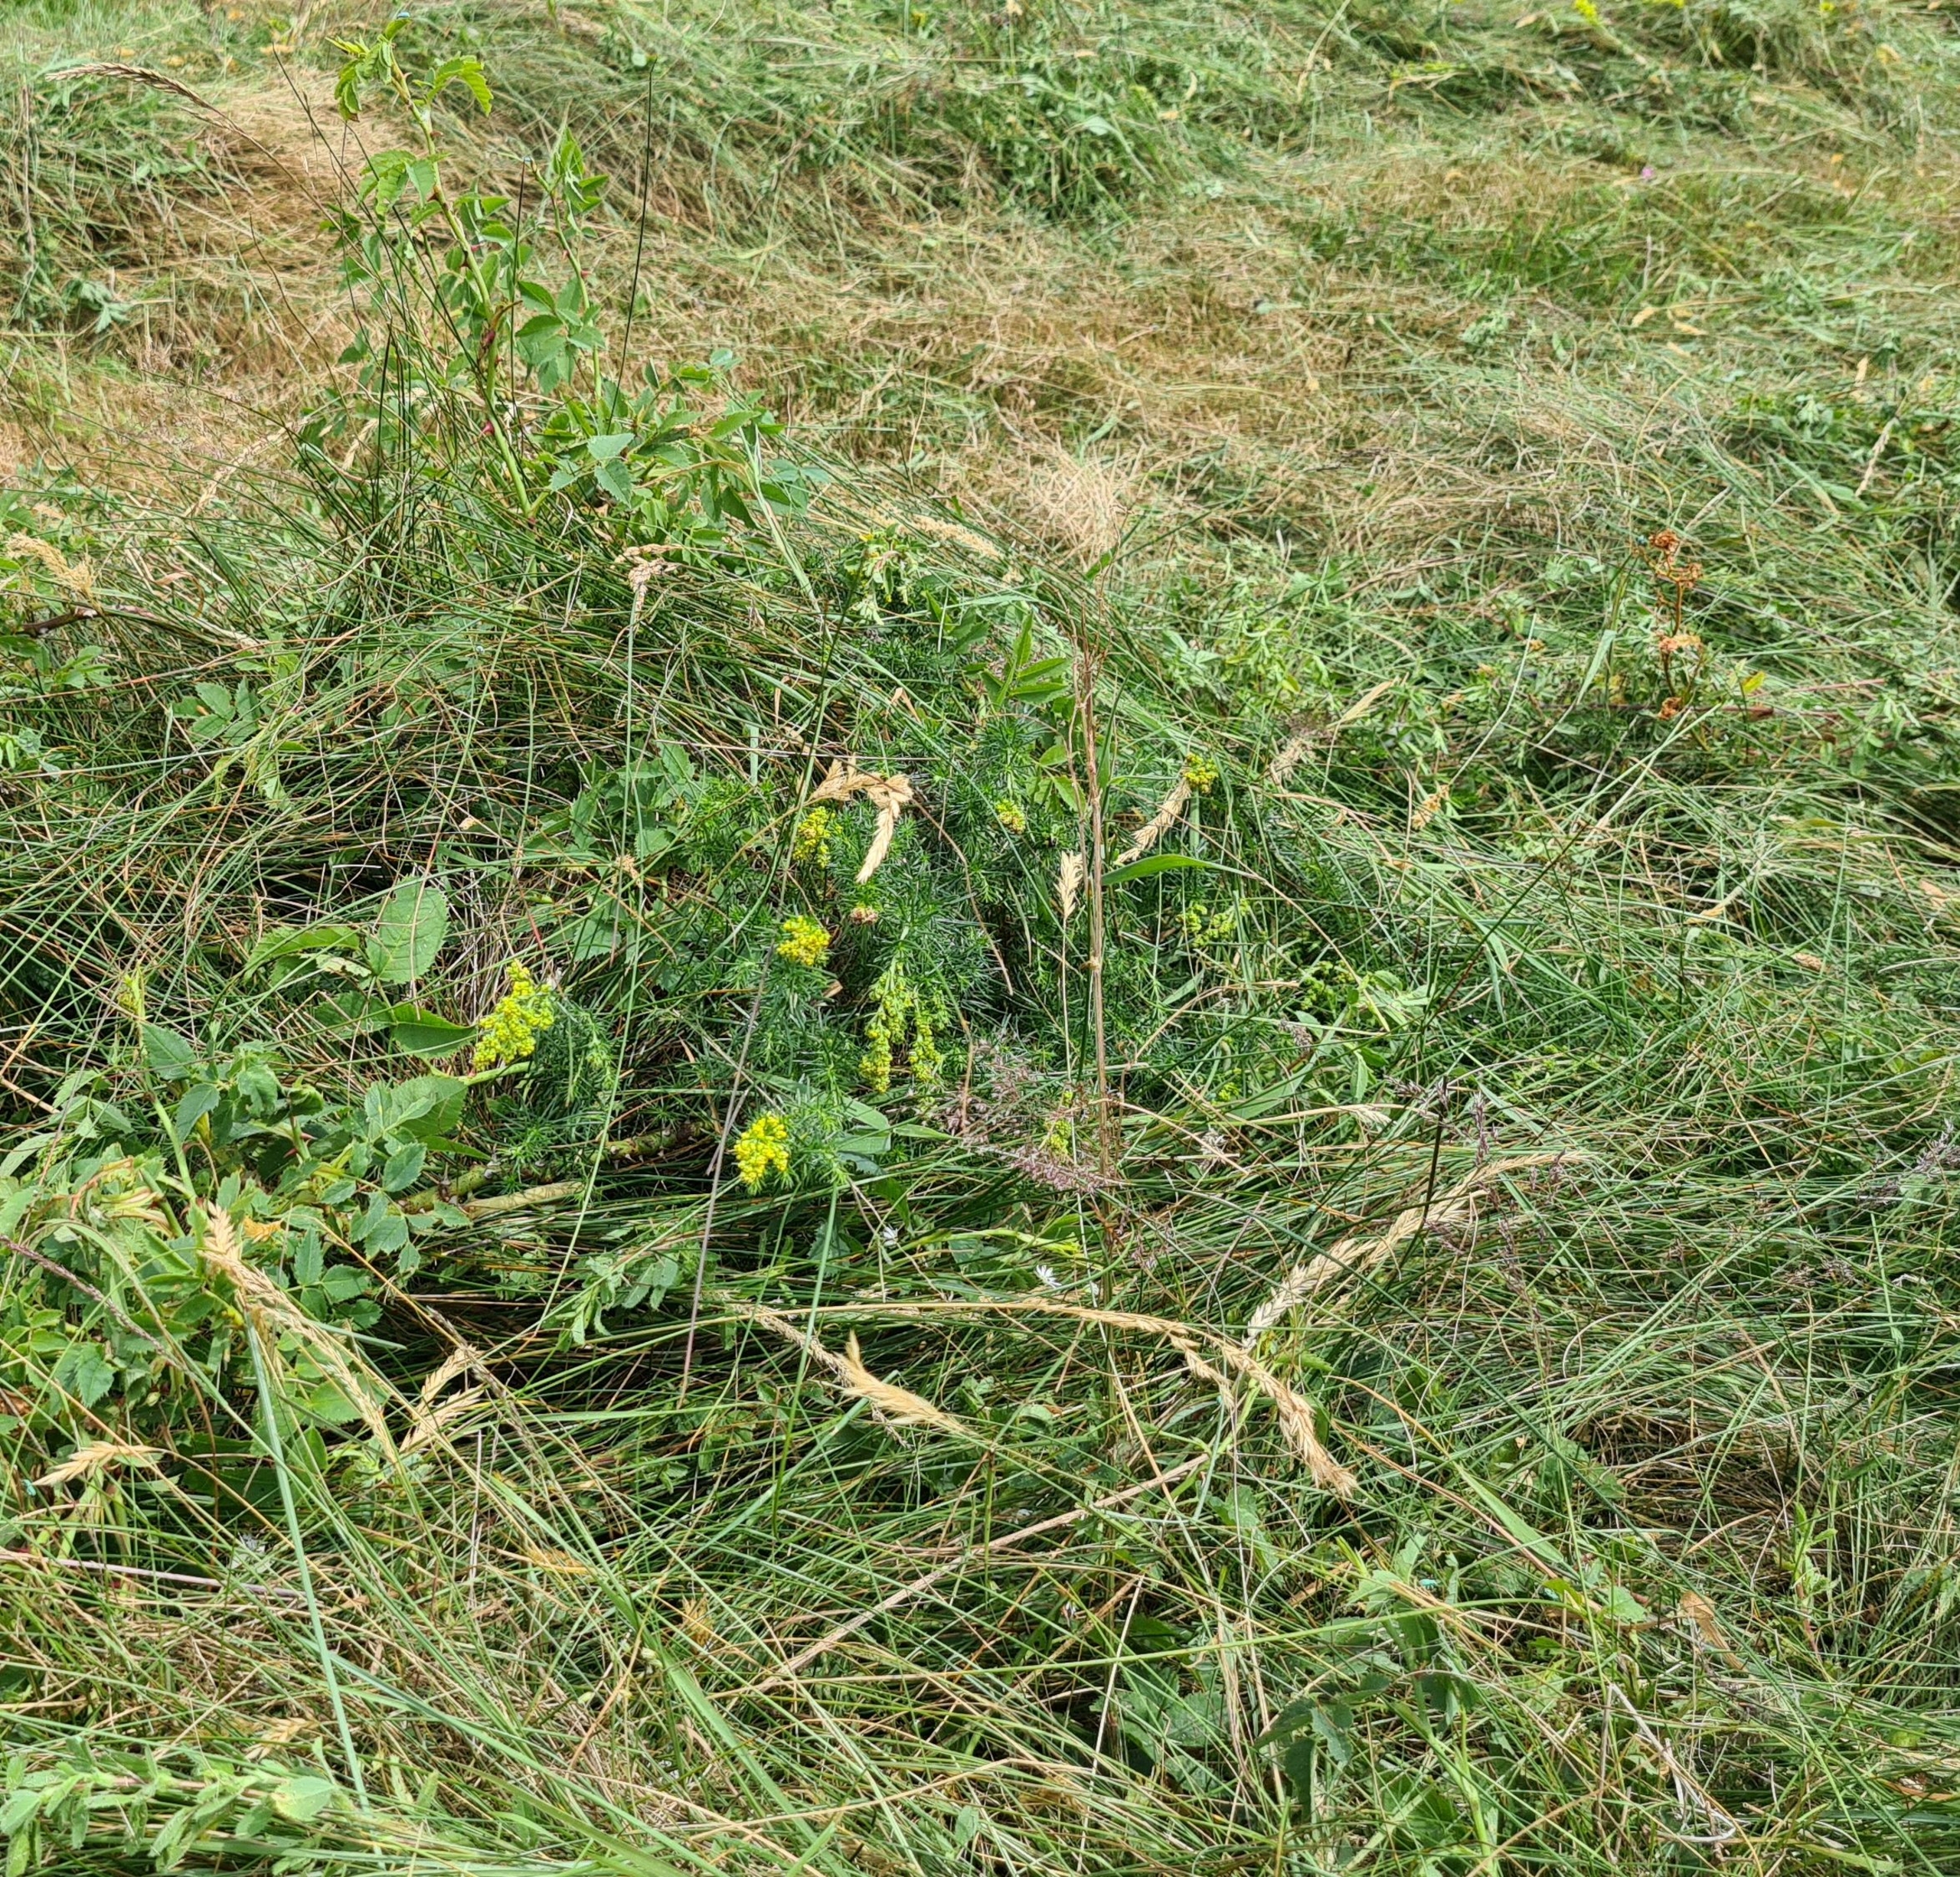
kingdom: Plantae
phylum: Tracheophyta
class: Magnoliopsida
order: Gentianales
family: Rubiaceae
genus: Galium
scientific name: Galium verum
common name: Gul snerre
